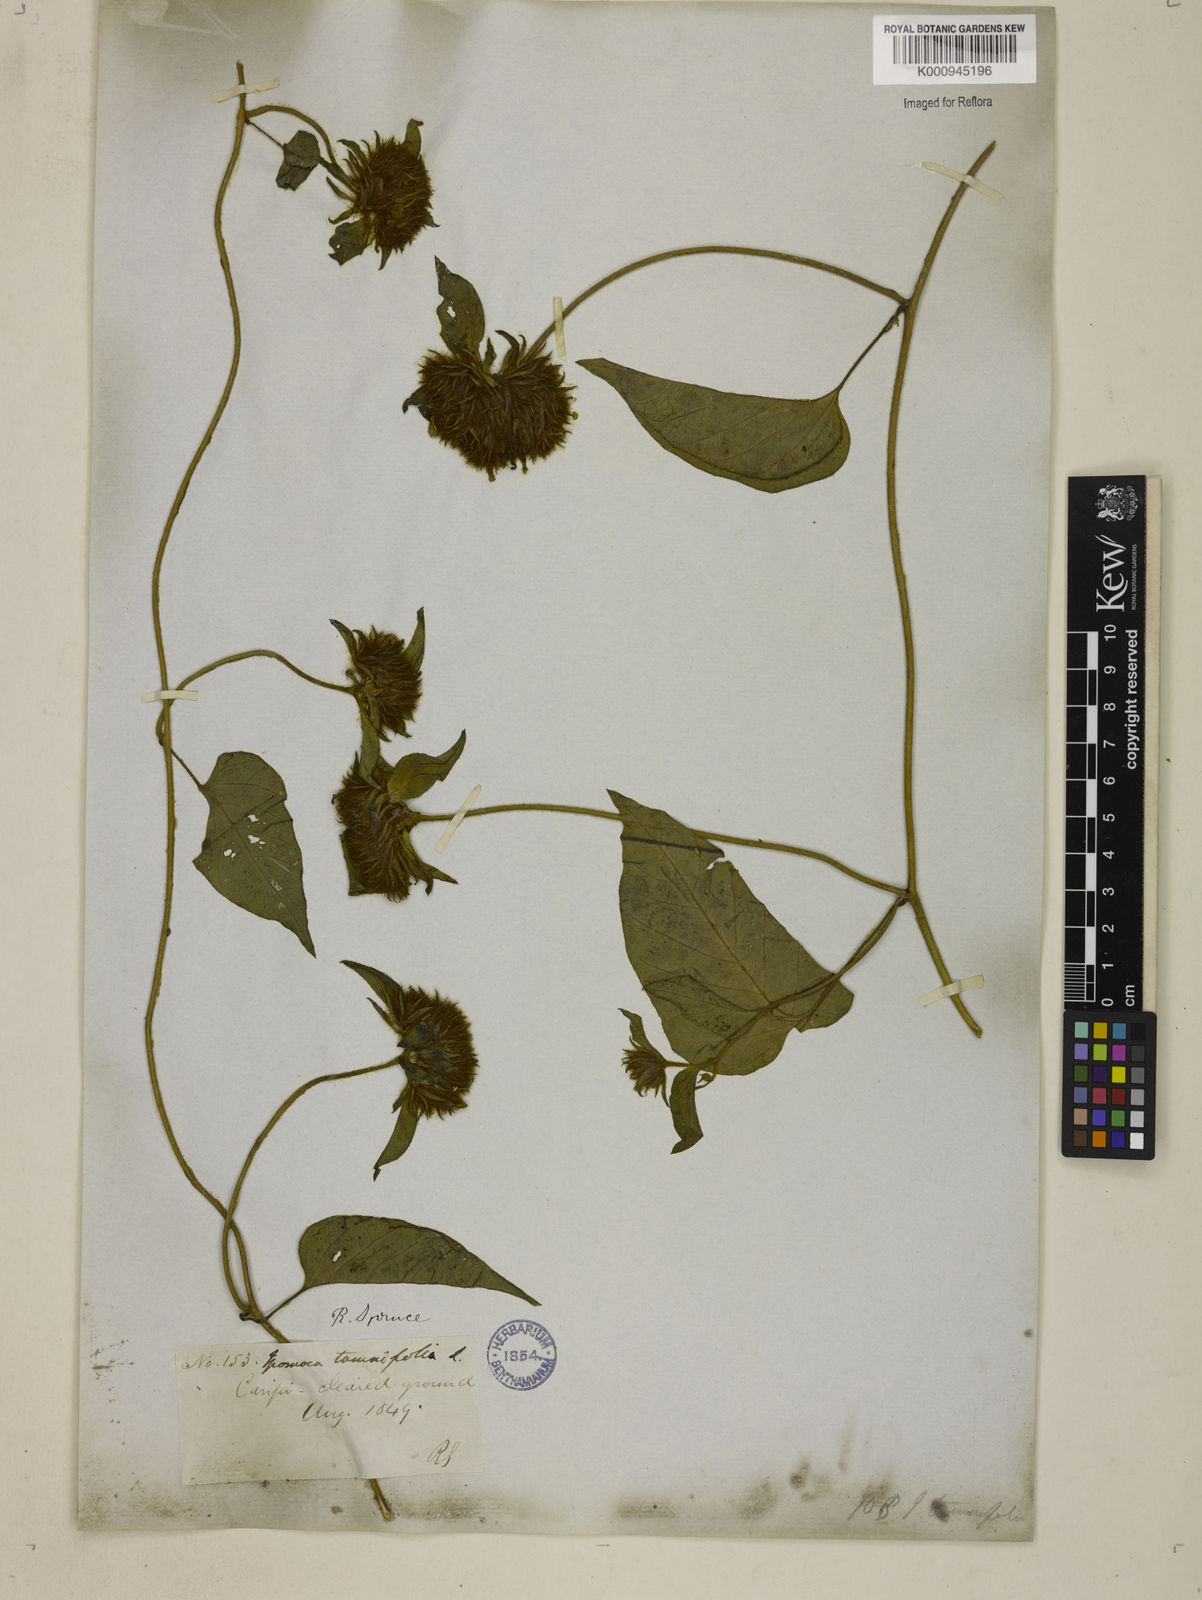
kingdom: Plantae
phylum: Tracheophyta
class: Magnoliopsida
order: Solanales
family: Convolvulaceae
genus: Jacquemontia
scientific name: Jacquemontia tamnifolia
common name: Hairy clustervine
